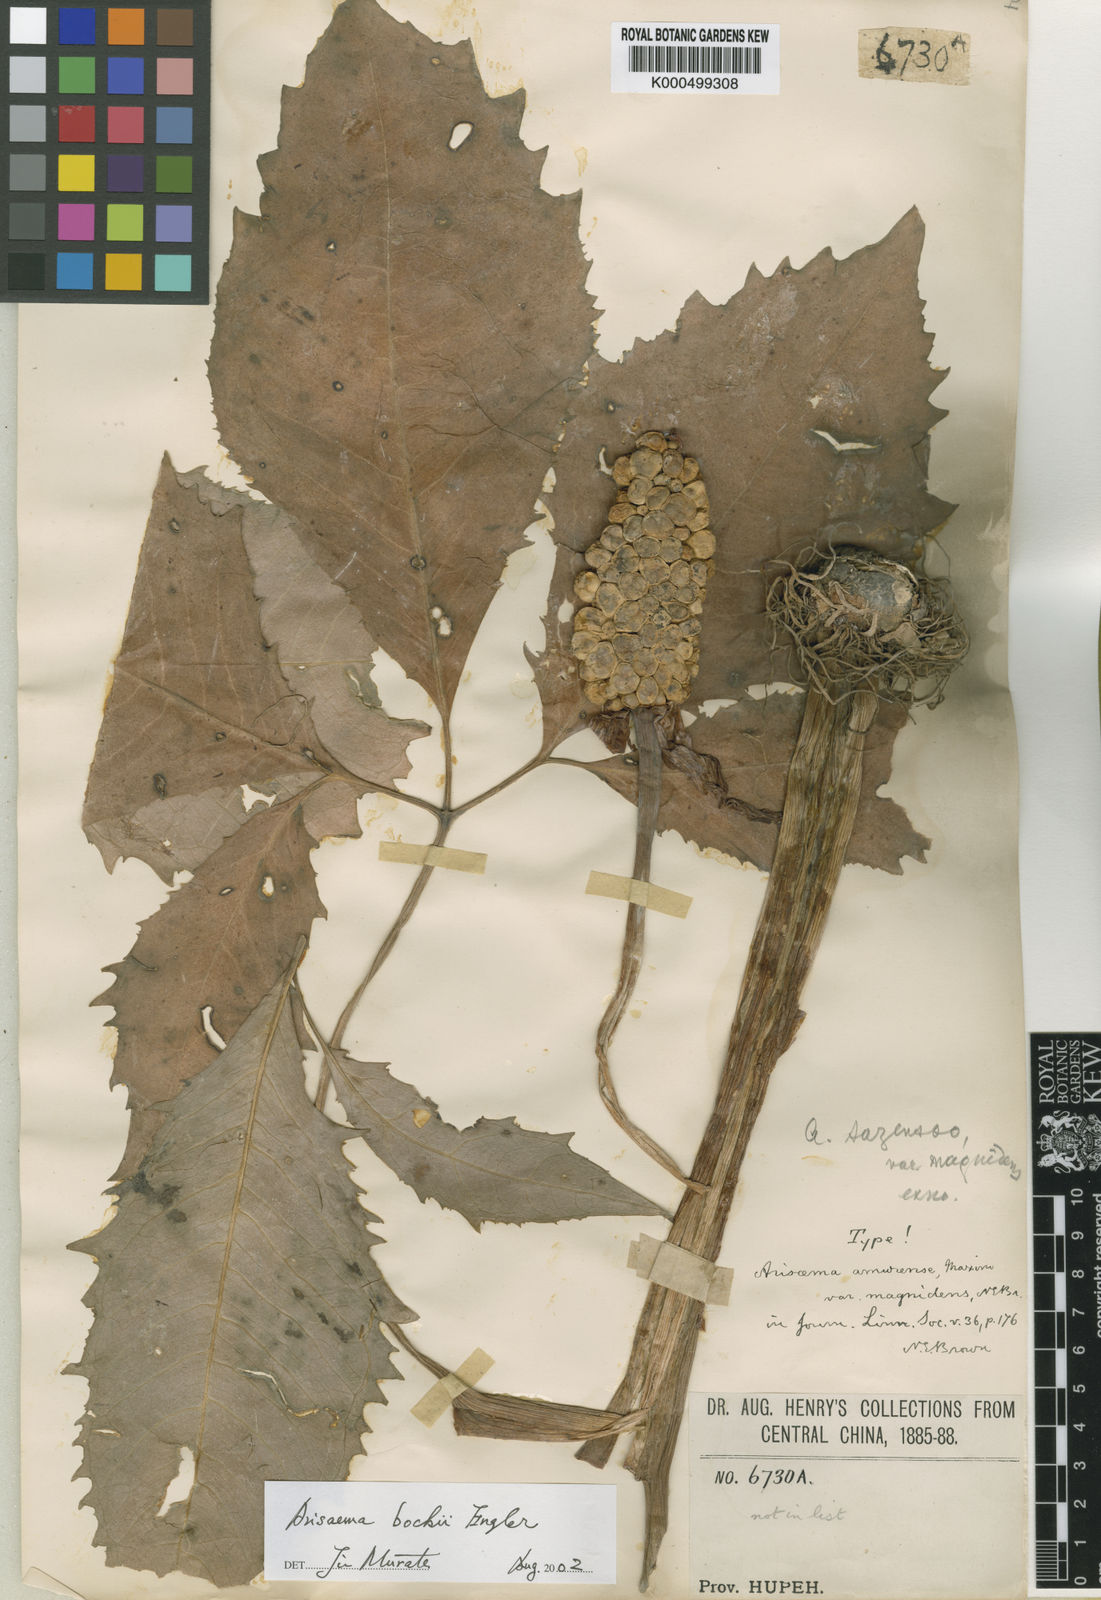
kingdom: Plantae
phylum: Tracheophyta
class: Liliopsida
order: Alismatales
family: Araceae
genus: Arisaema
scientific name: Arisaema amurense
